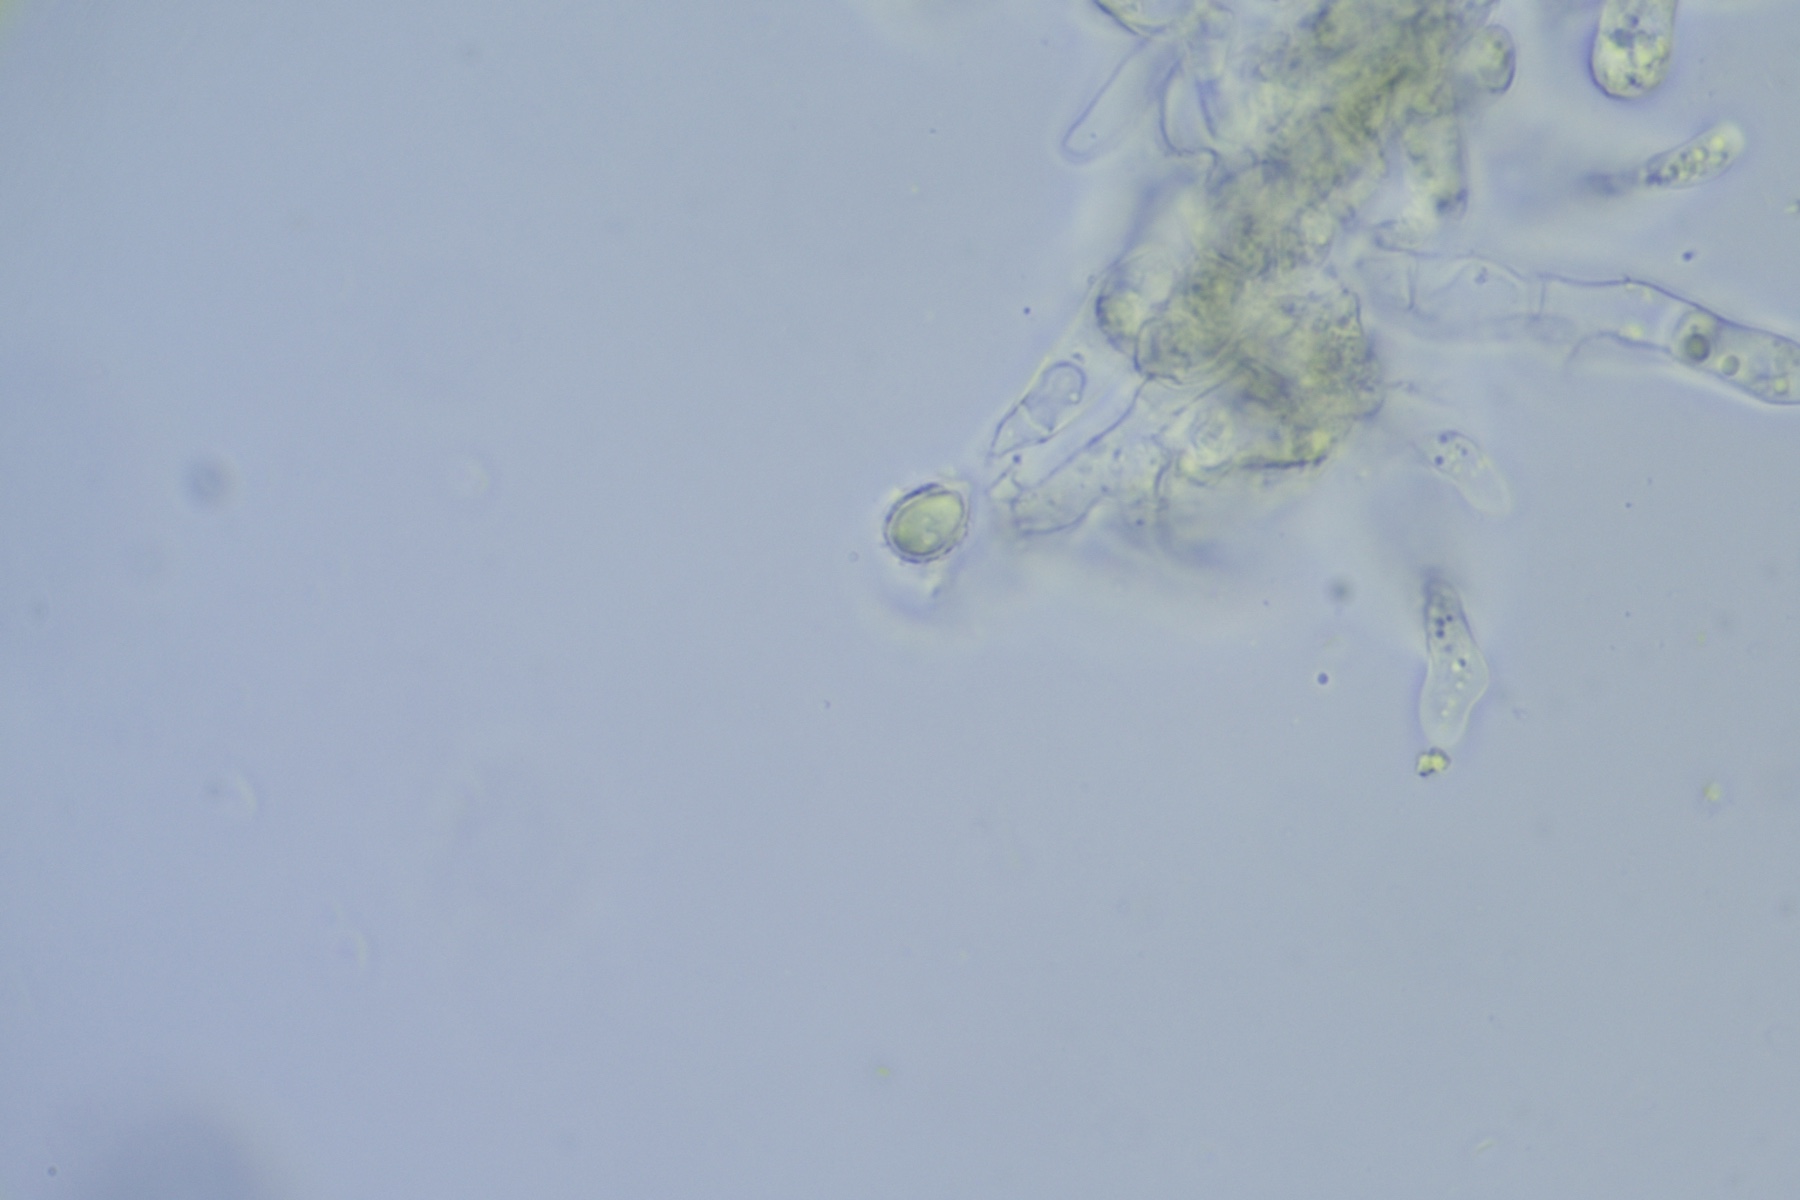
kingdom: Fungi
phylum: Basidiomycota
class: Agaricomycetes
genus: Trechinothus
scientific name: Trechinothus smardae
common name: krathinde
